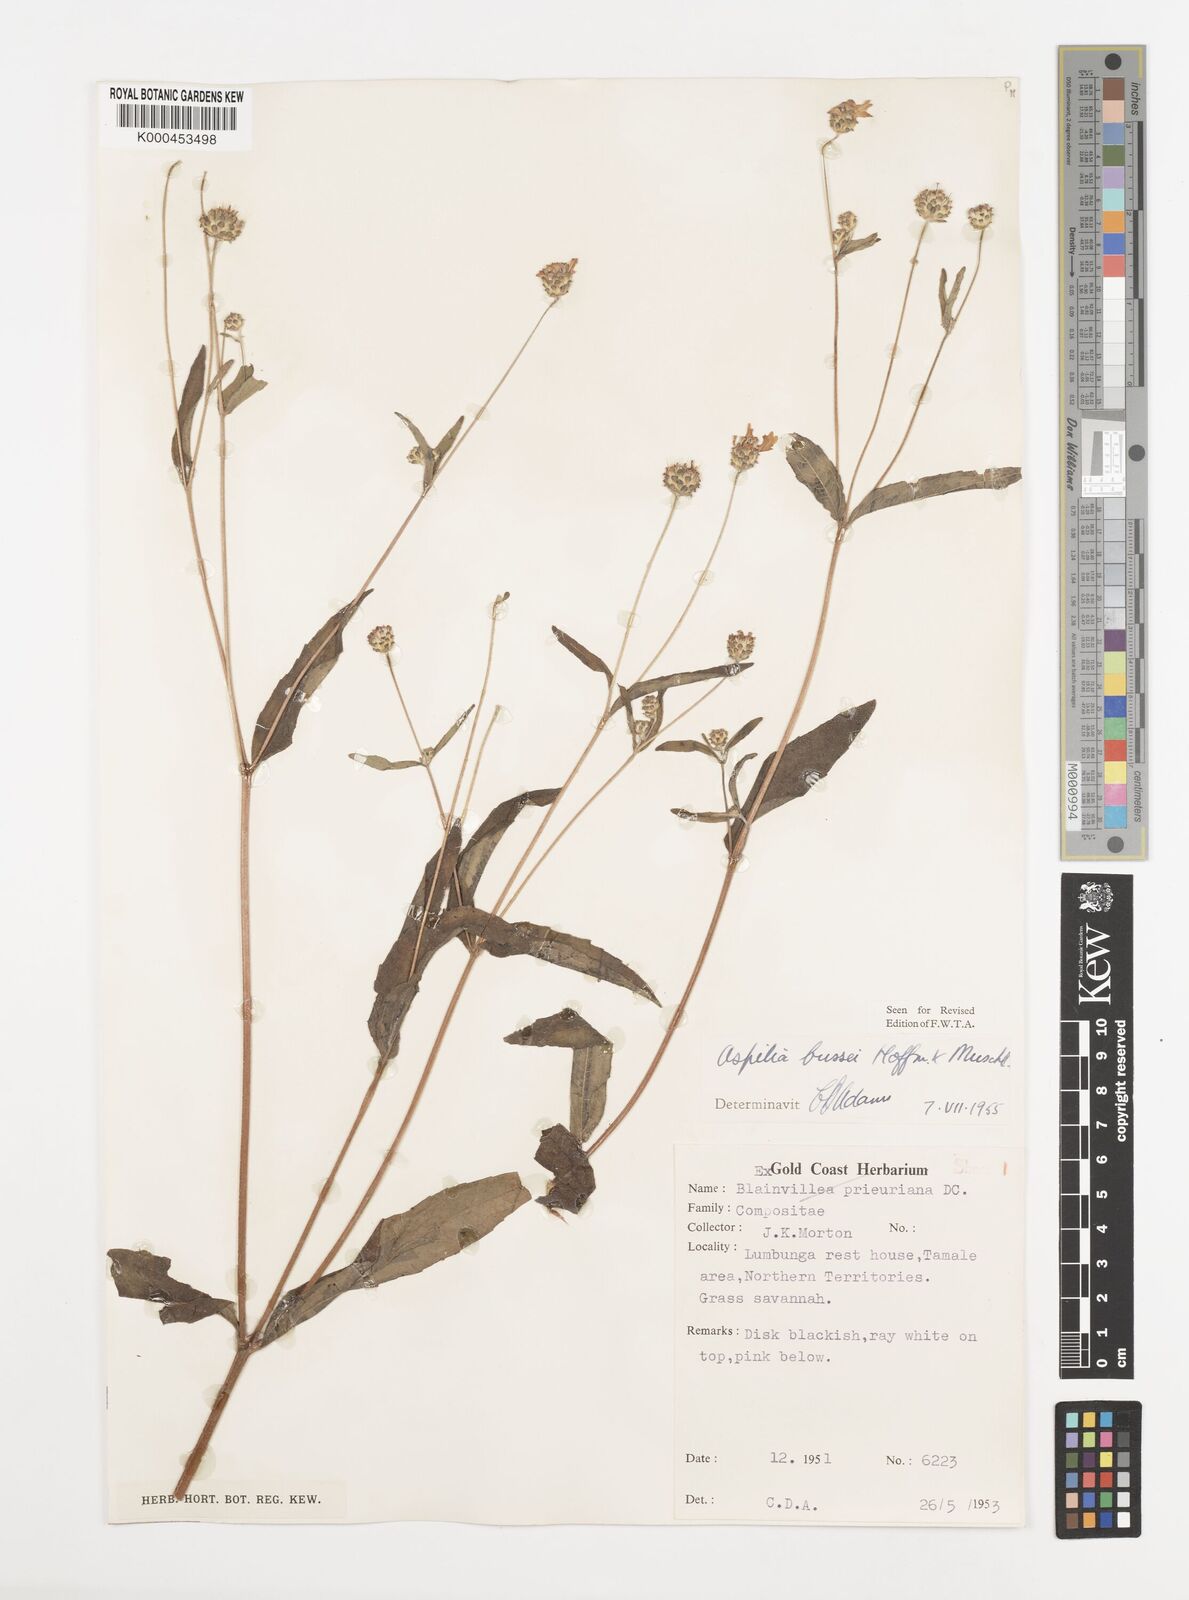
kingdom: Plantae
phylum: Tracheophyta
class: Magnoliopsida
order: Asterales
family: Asteraceae
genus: Aspilia
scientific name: Aspilia bussei
